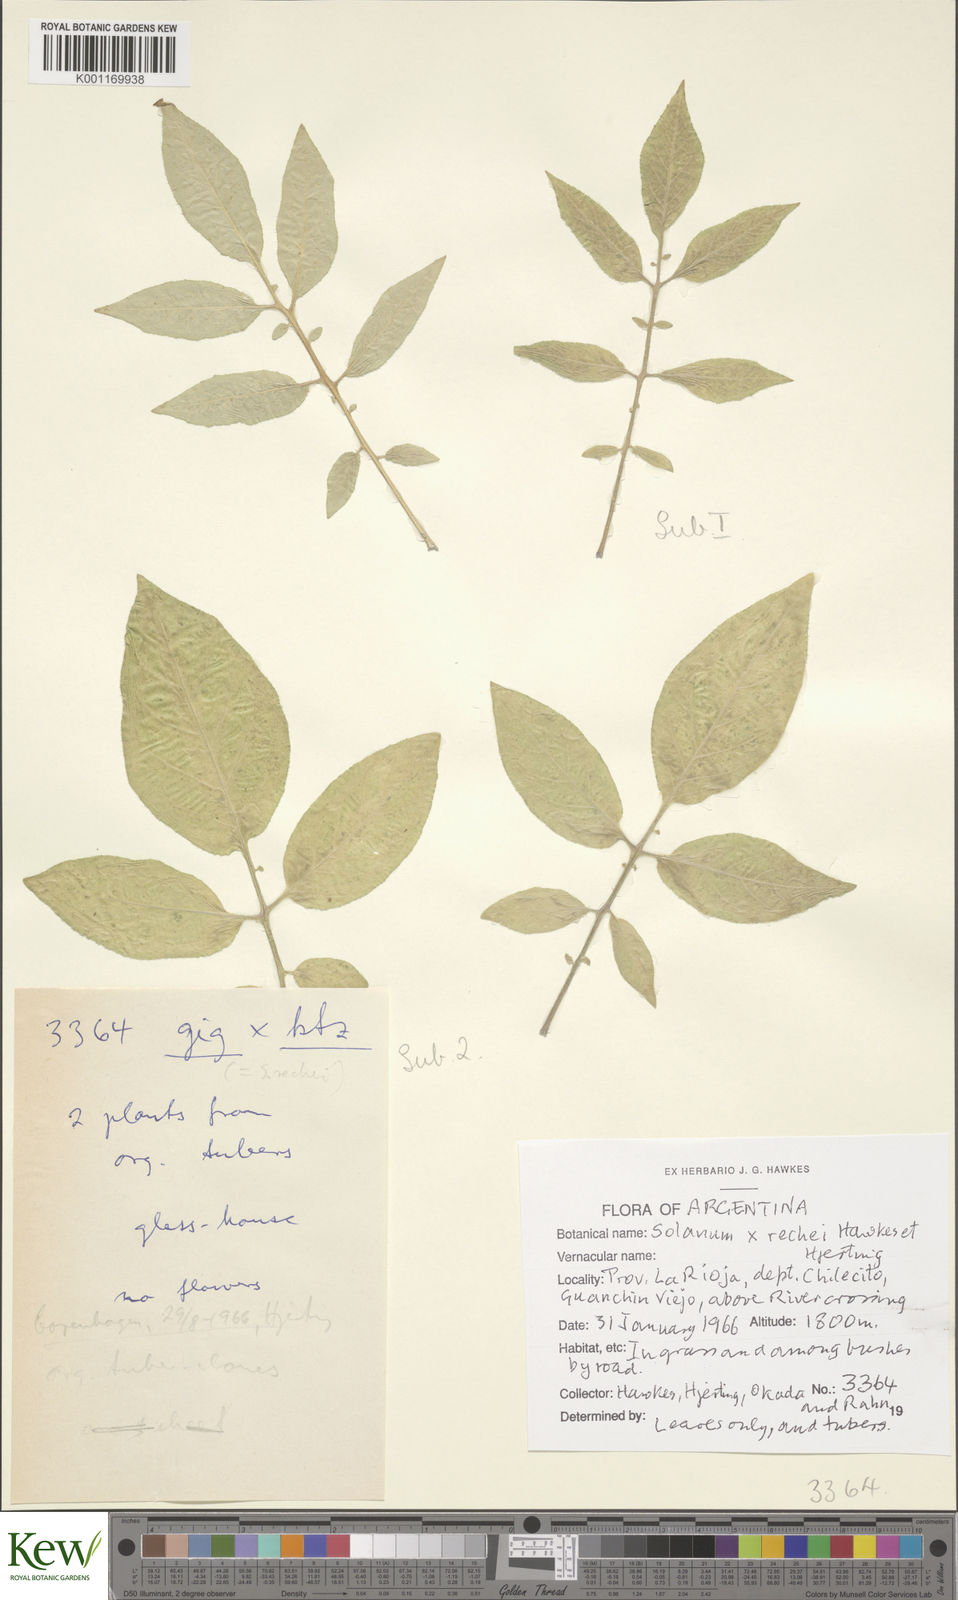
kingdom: Plantae
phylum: Tracheophyta
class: Magnoliopsida
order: Solanales
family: Solanaceae
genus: Solanum
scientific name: Solanum retroflexum
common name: Wonderberry
